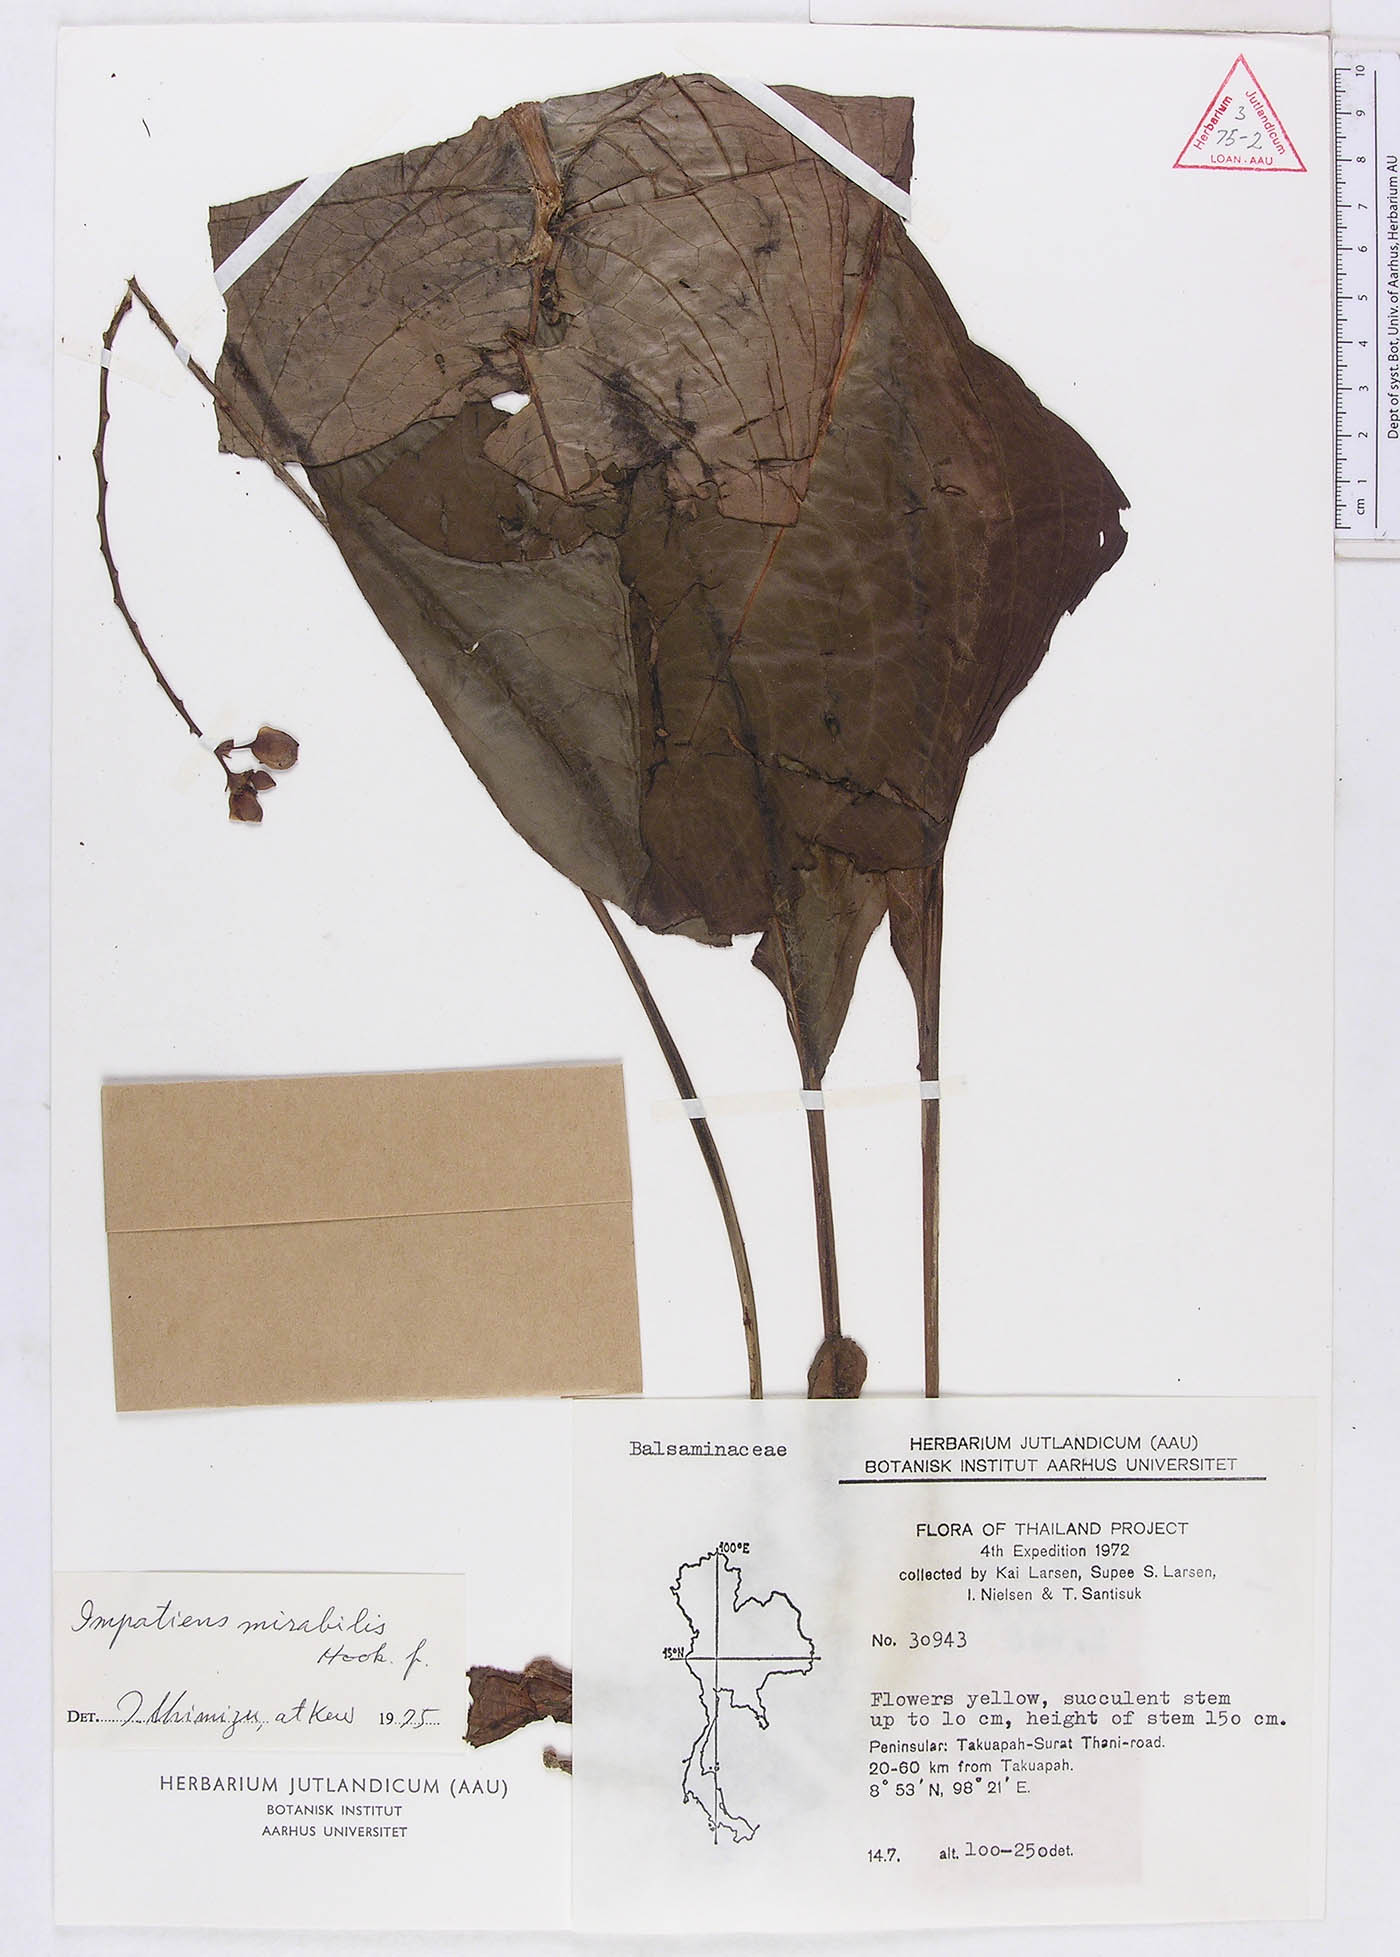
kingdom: Plantae
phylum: Tracheophyta
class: Magnoliopsida
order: Ericales
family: Balsaminaceae
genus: Impatiens
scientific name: Impatiens mirabilis
